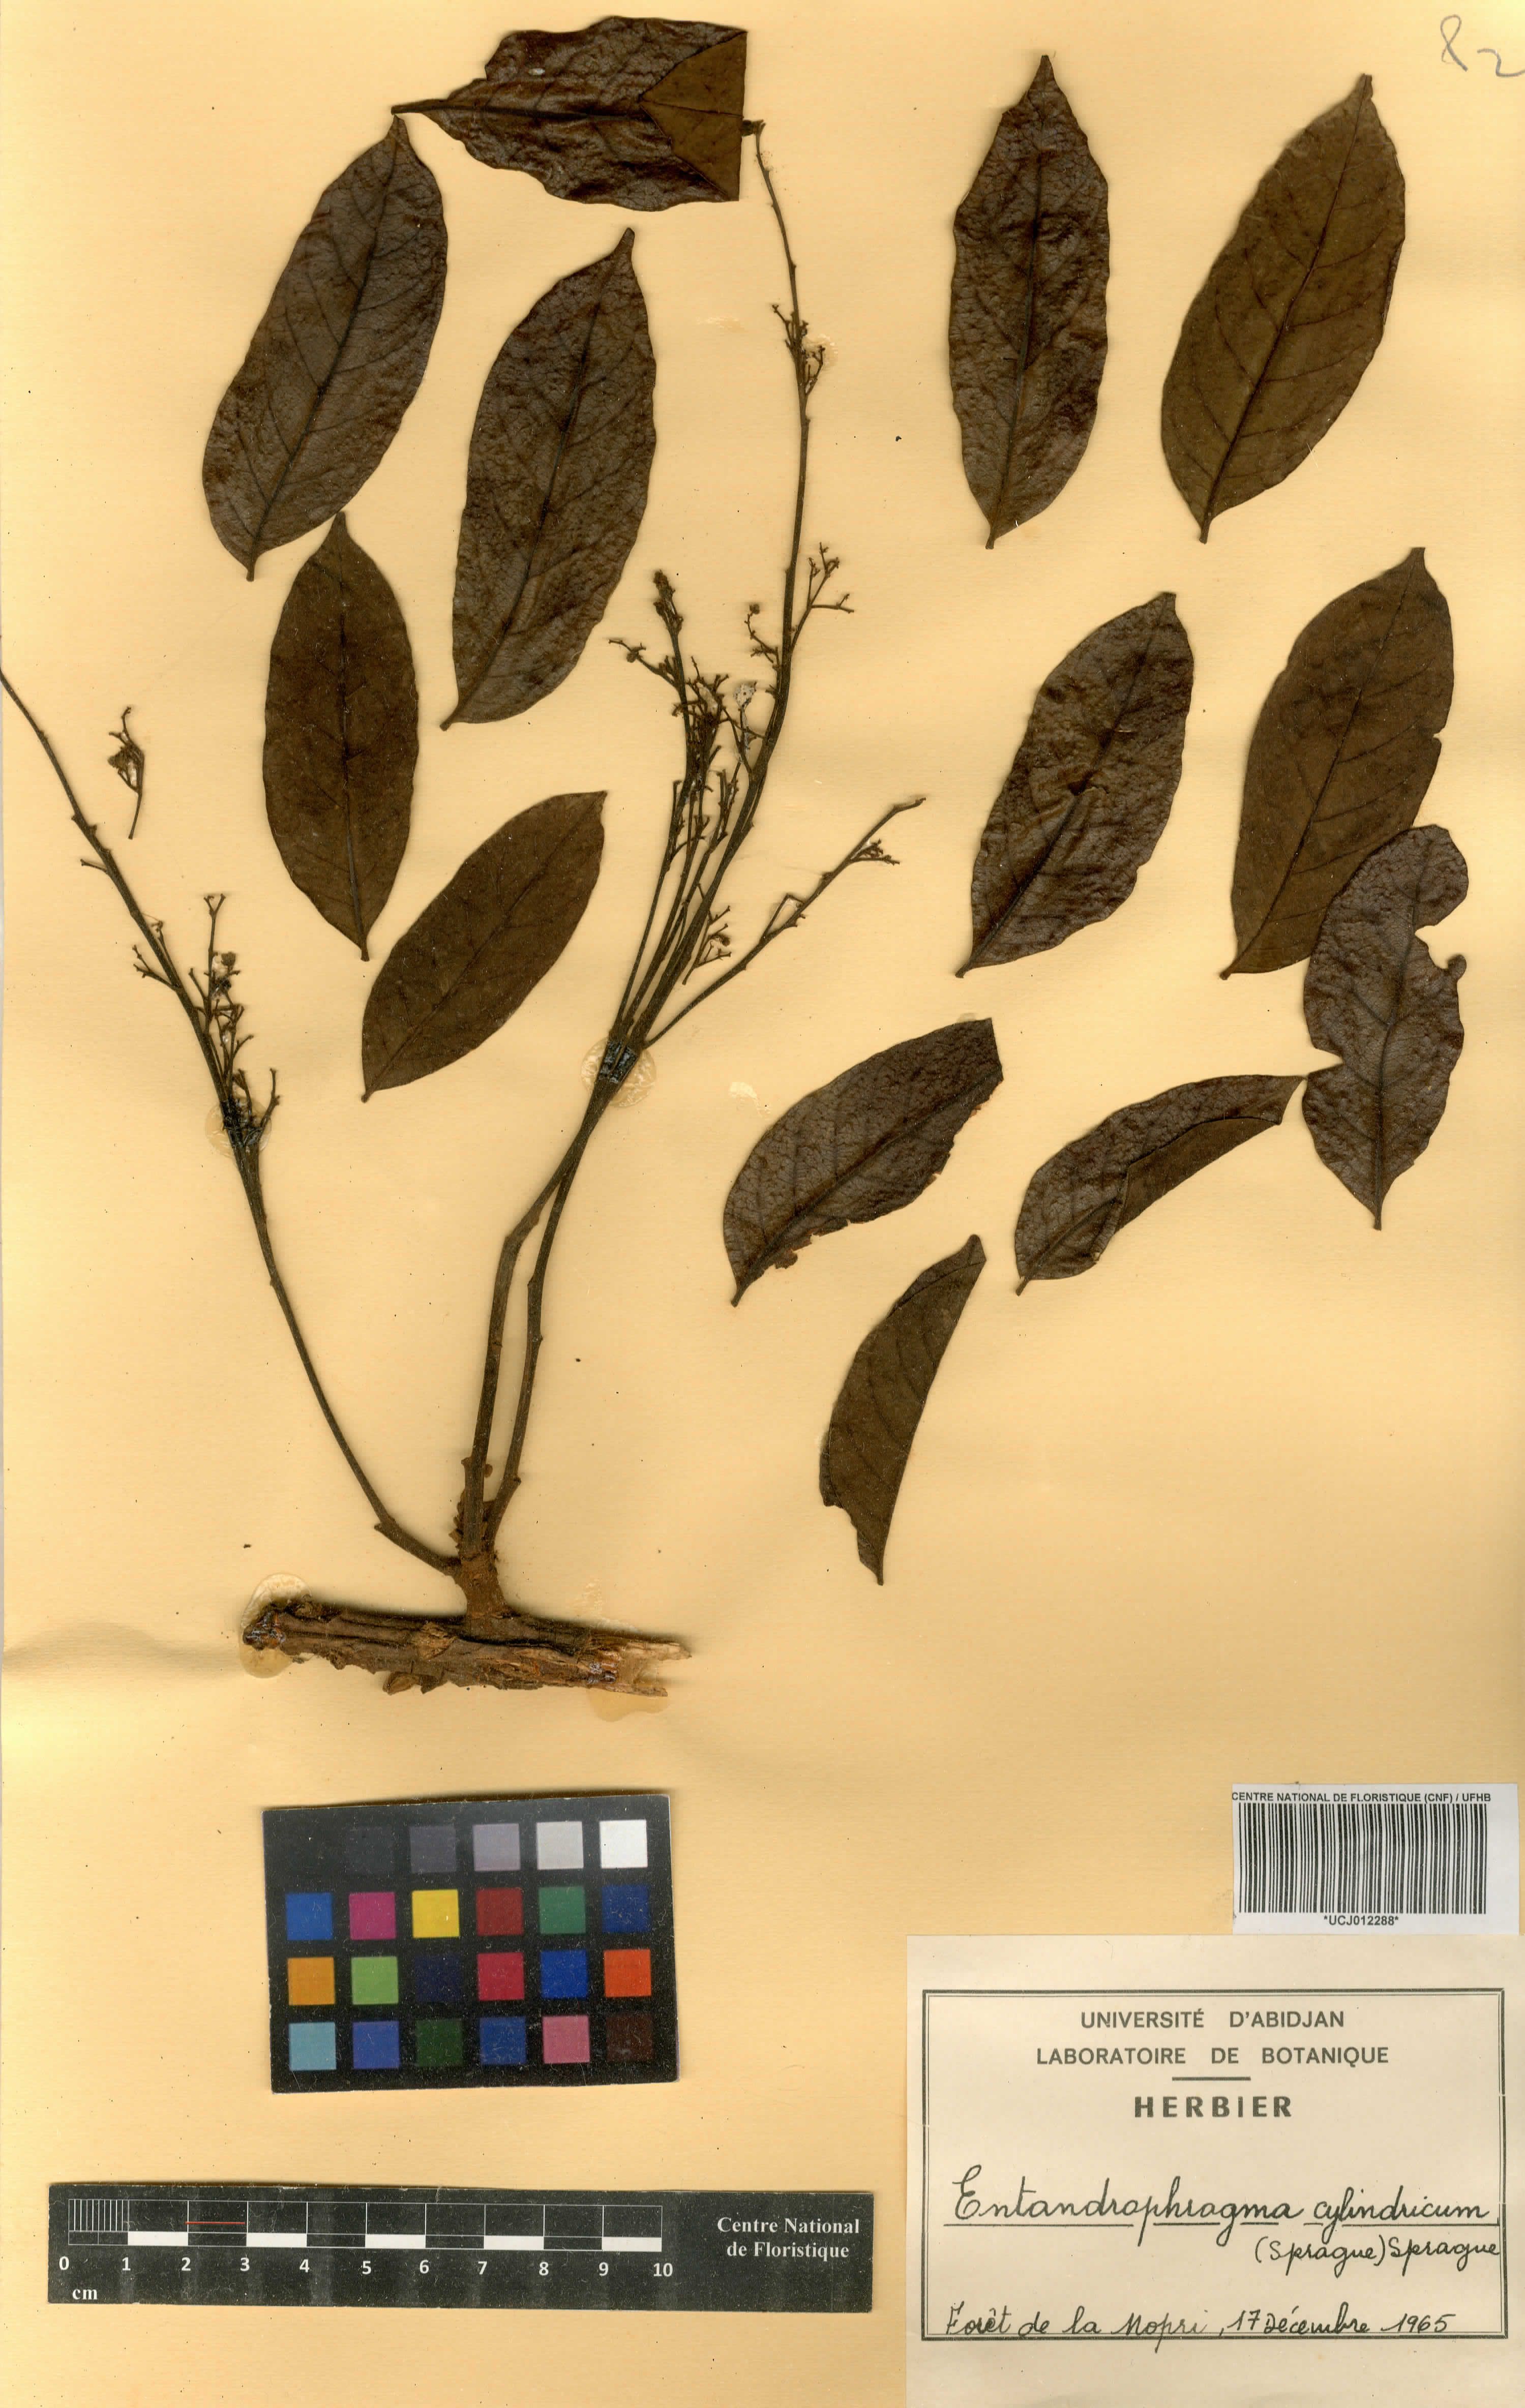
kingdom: Plantae
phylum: Tracheophyta
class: Magnoliopsida
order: Sapindales
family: Meliaceae
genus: Entandrophragma
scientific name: Entandrophragma cylindricum
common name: Sapele
